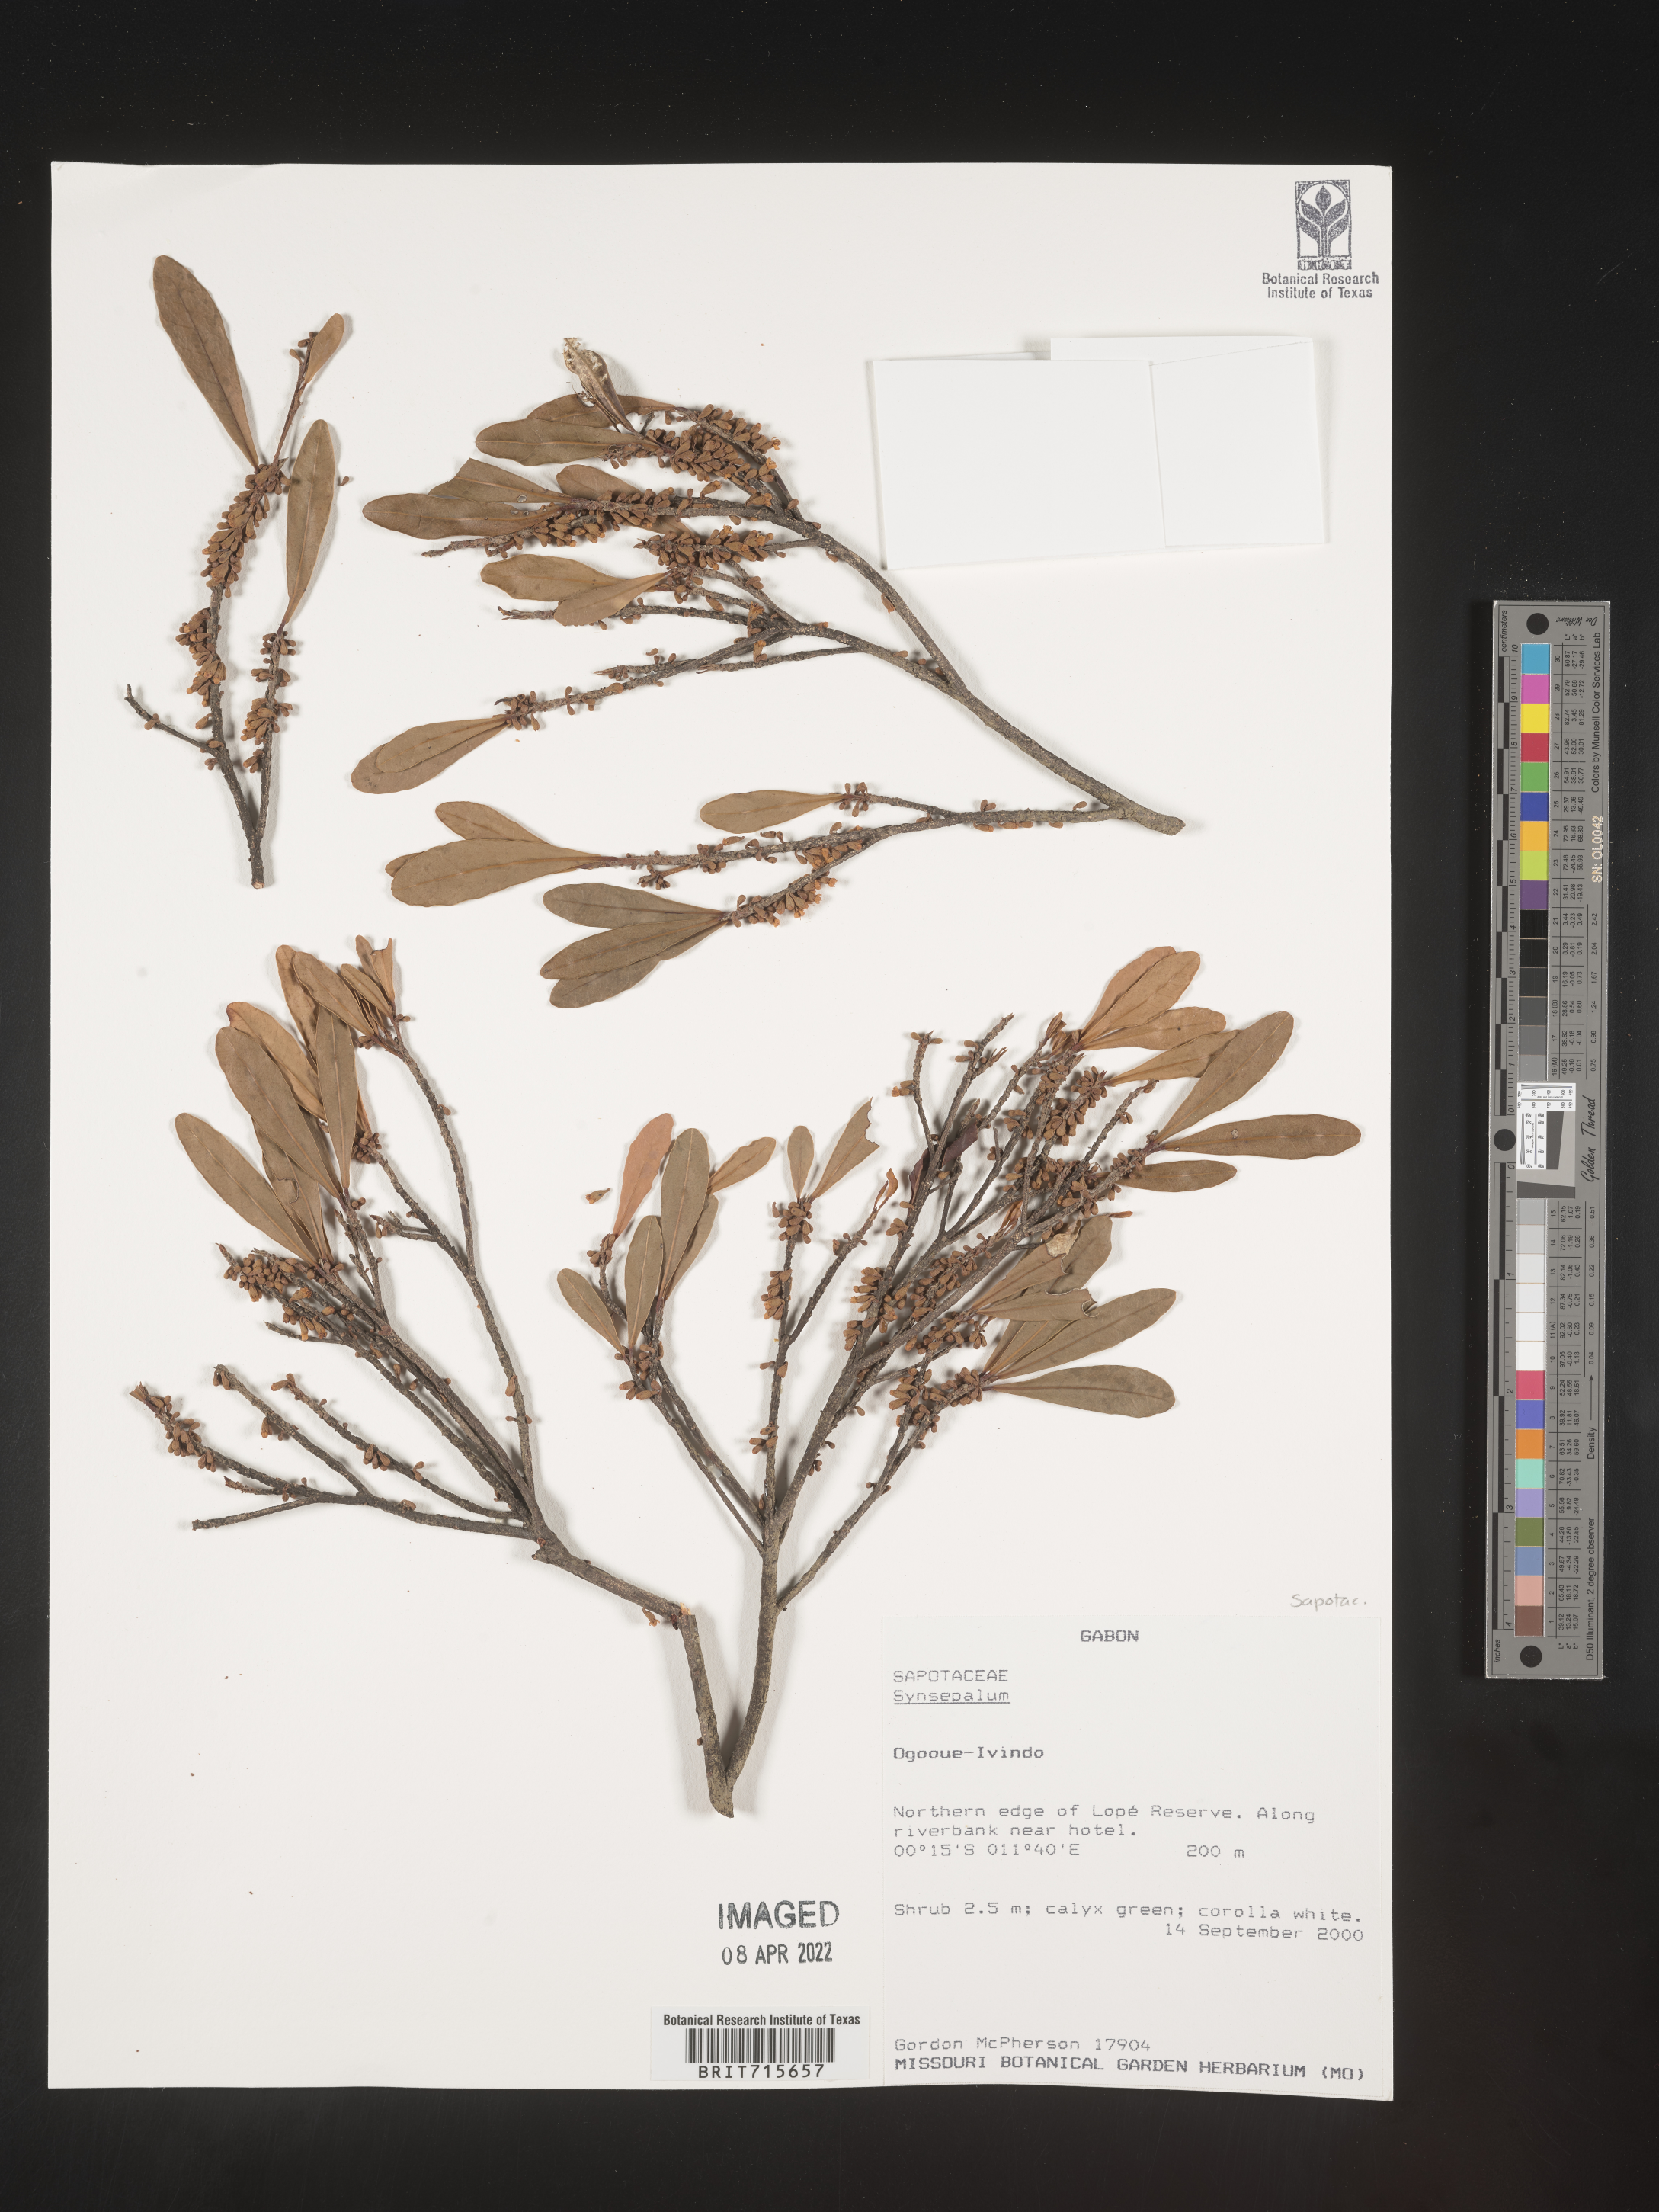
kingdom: Plantae
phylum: Tracheophyta
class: Magnoliopsida
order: Ericales
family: Sapotaceae
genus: Synsepalum
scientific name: Synsepalum
